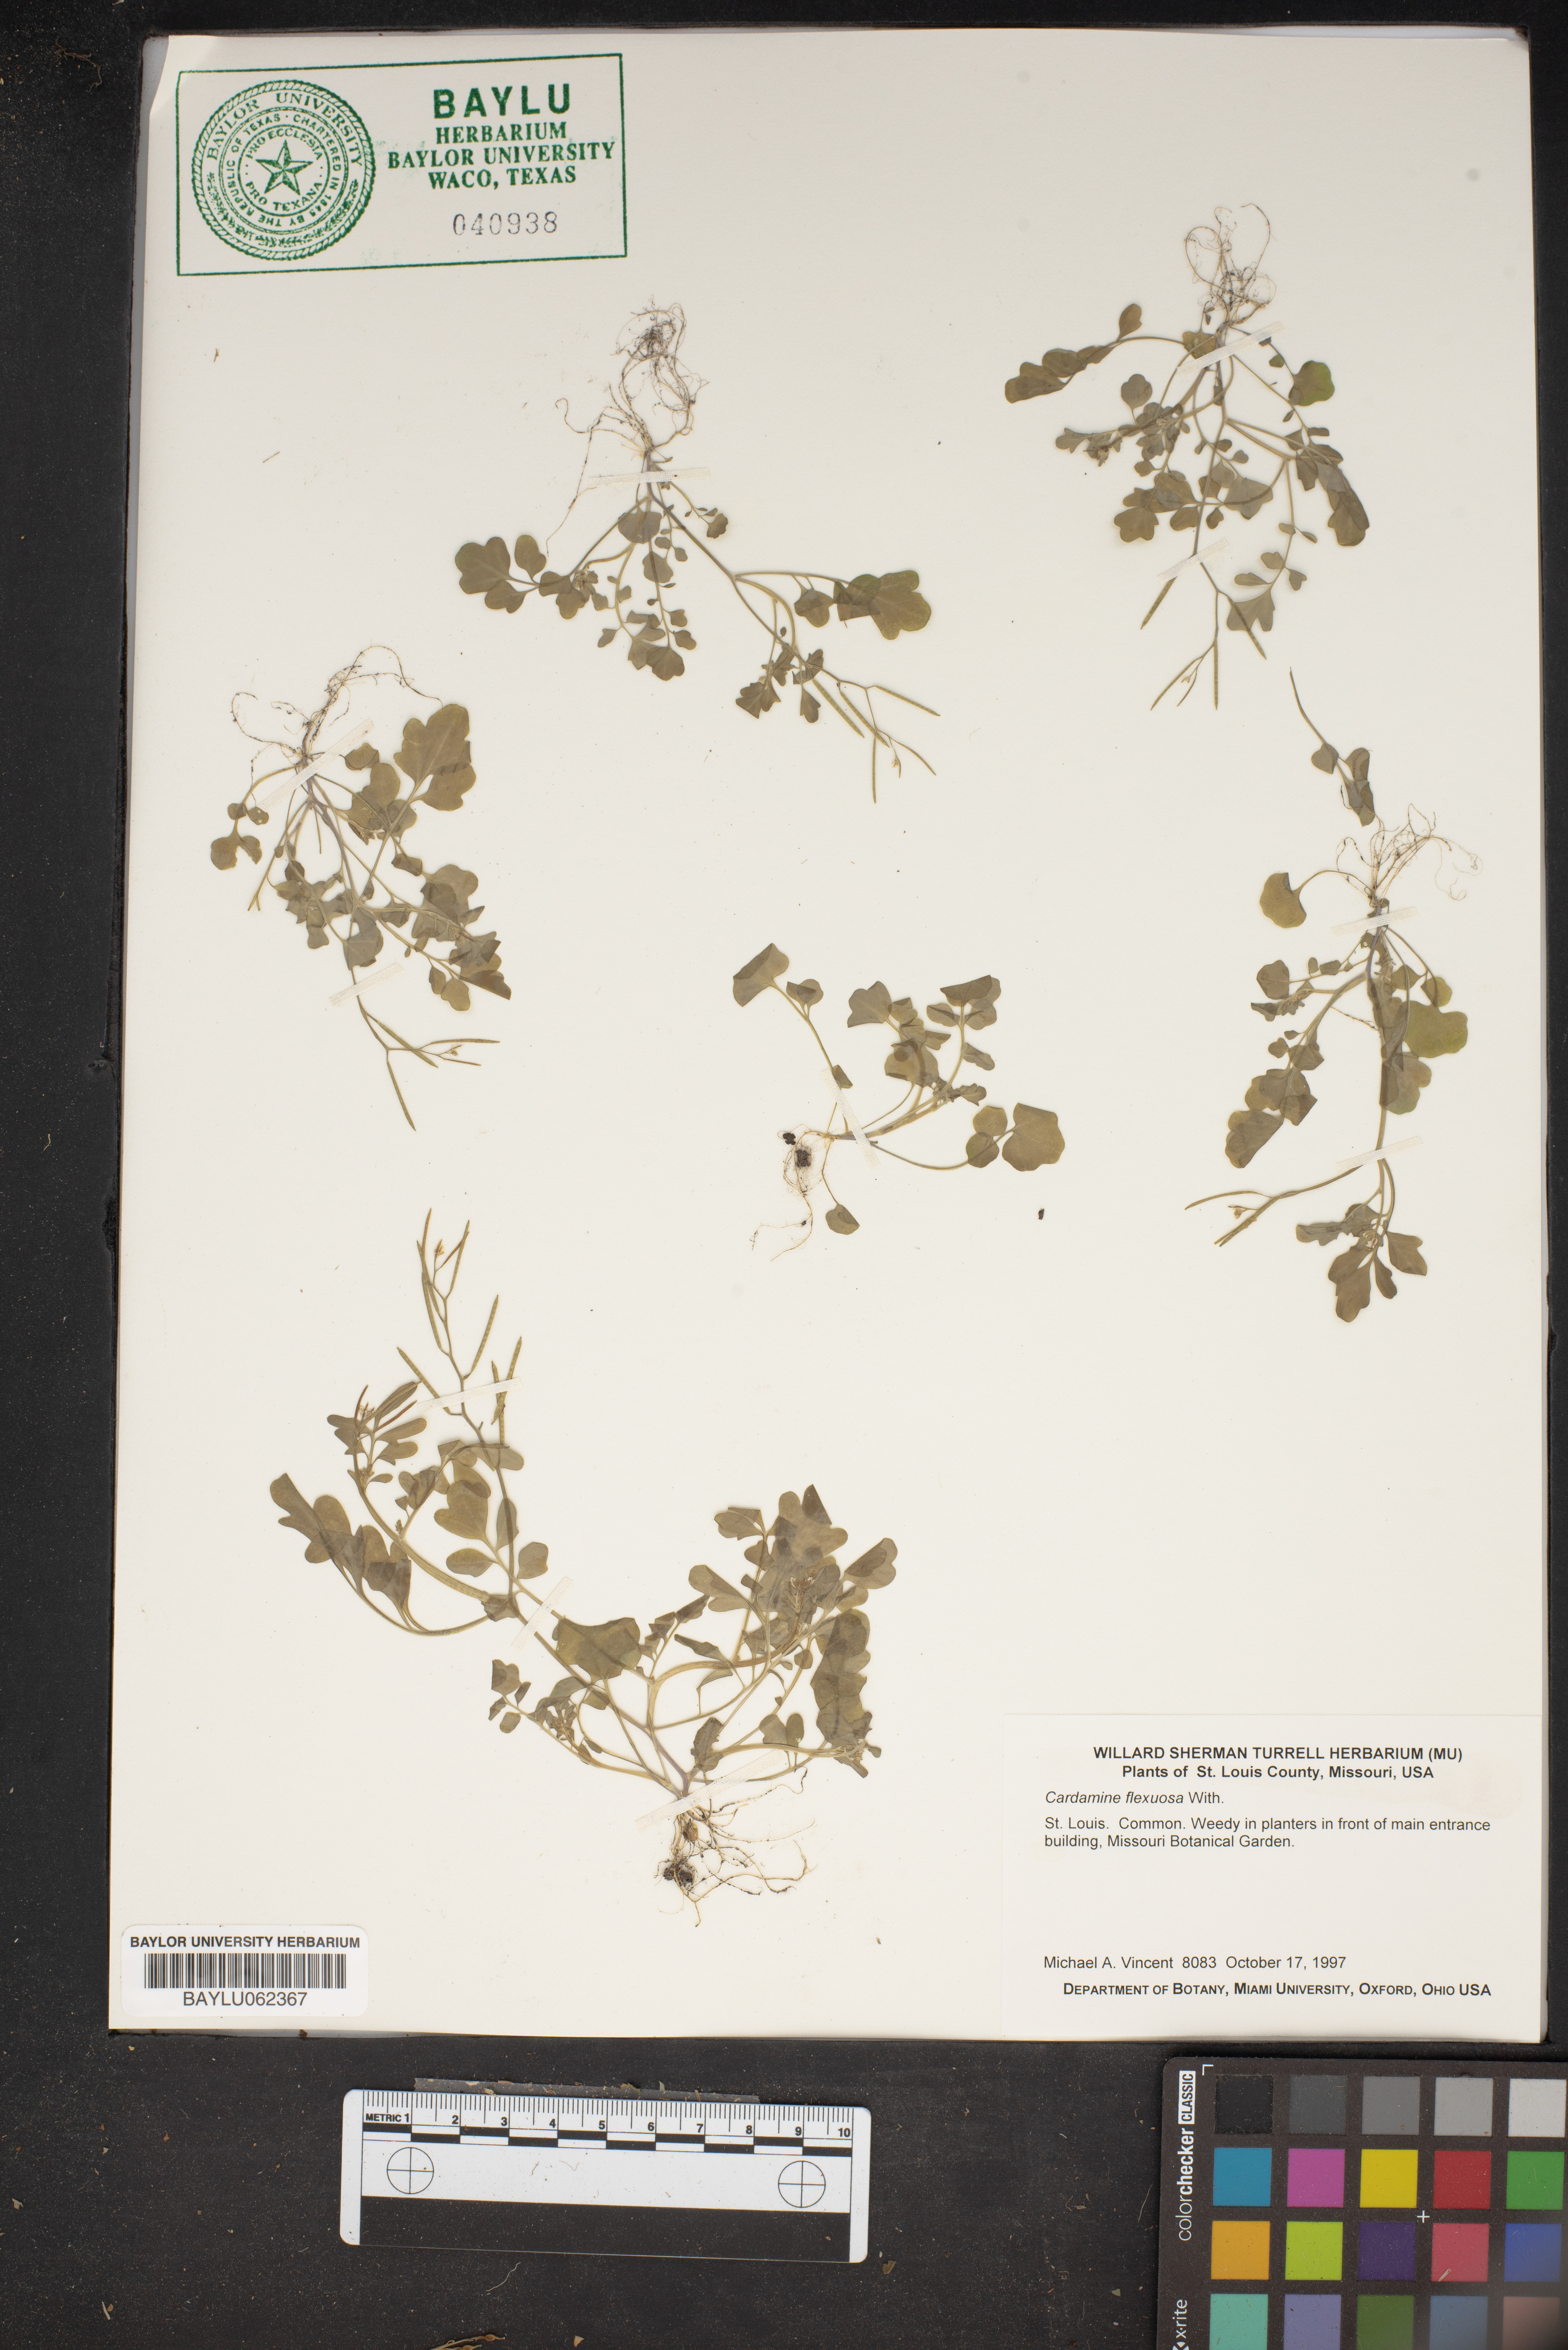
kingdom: Plantae
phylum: Tracheophyta
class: Magnoliopsida
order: Brassicales
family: Brassicaceae
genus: Cardamine
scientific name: Cardamine flexuosa
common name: Woodland bittercress
